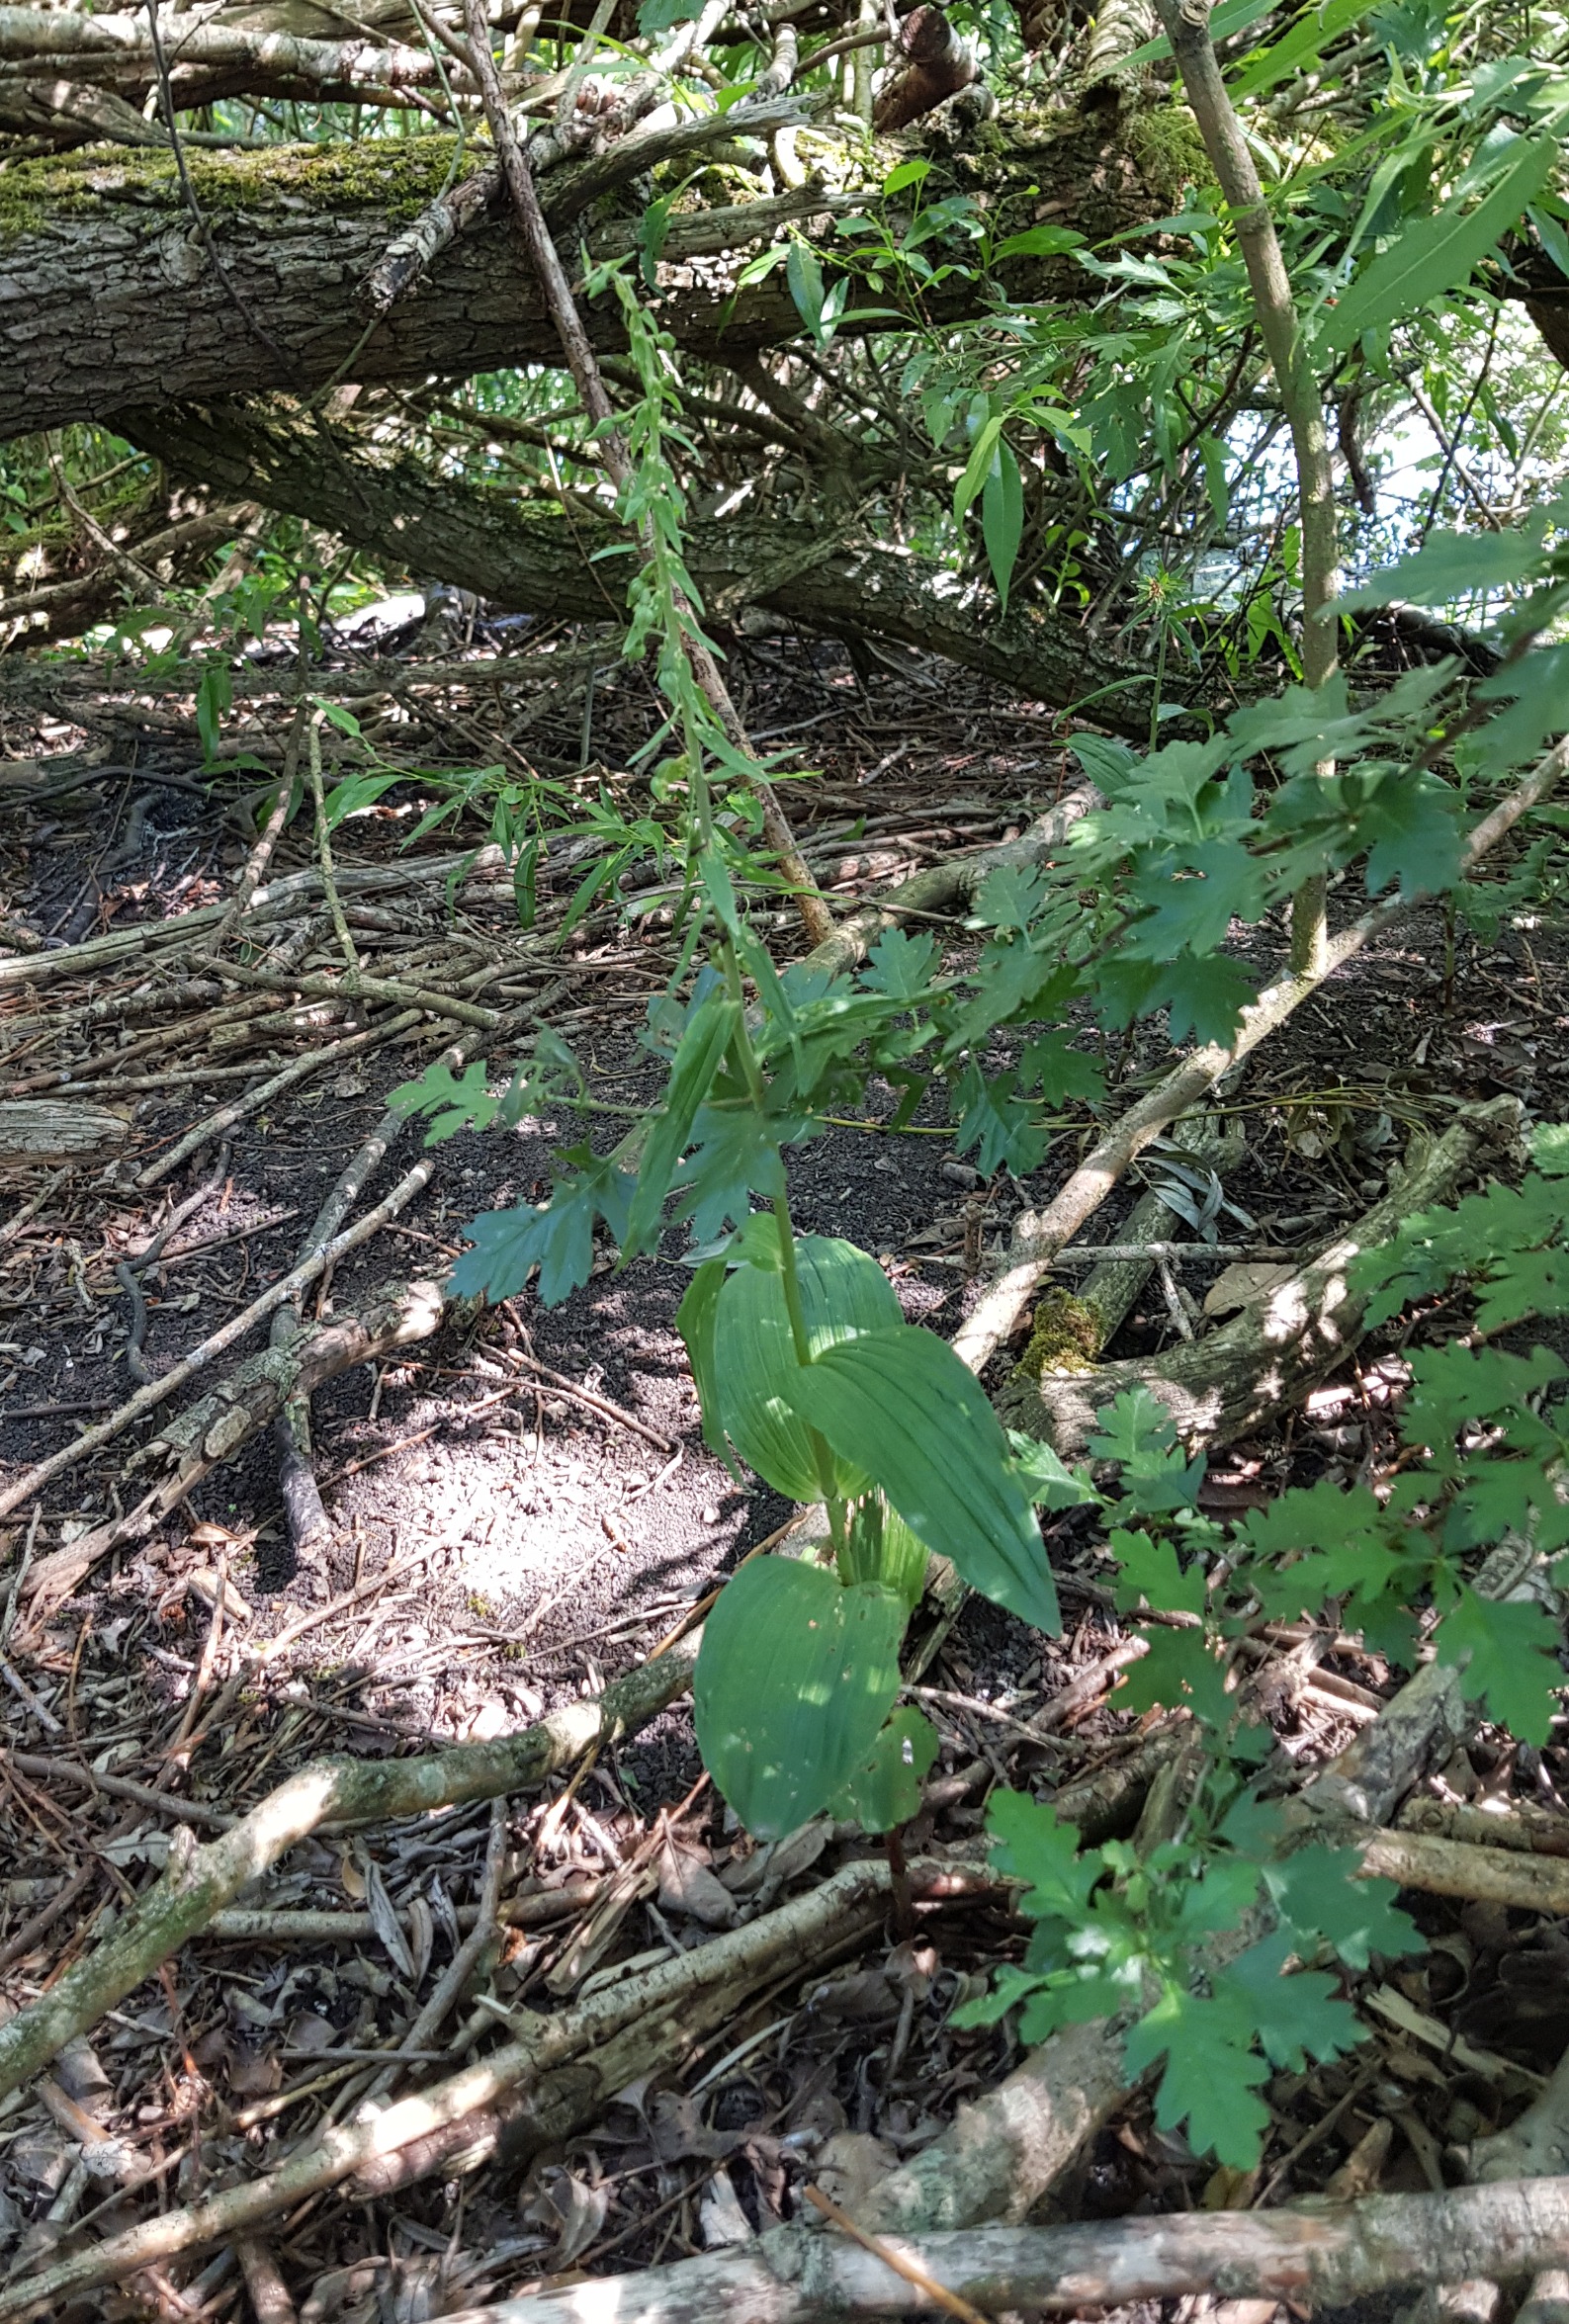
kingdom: Plantae
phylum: Tracheophyta
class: Liliopsida
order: Asparagales
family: Orchidaceae
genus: Epipactis
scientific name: Epipactis helleborine
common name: Skov-hullæbe
